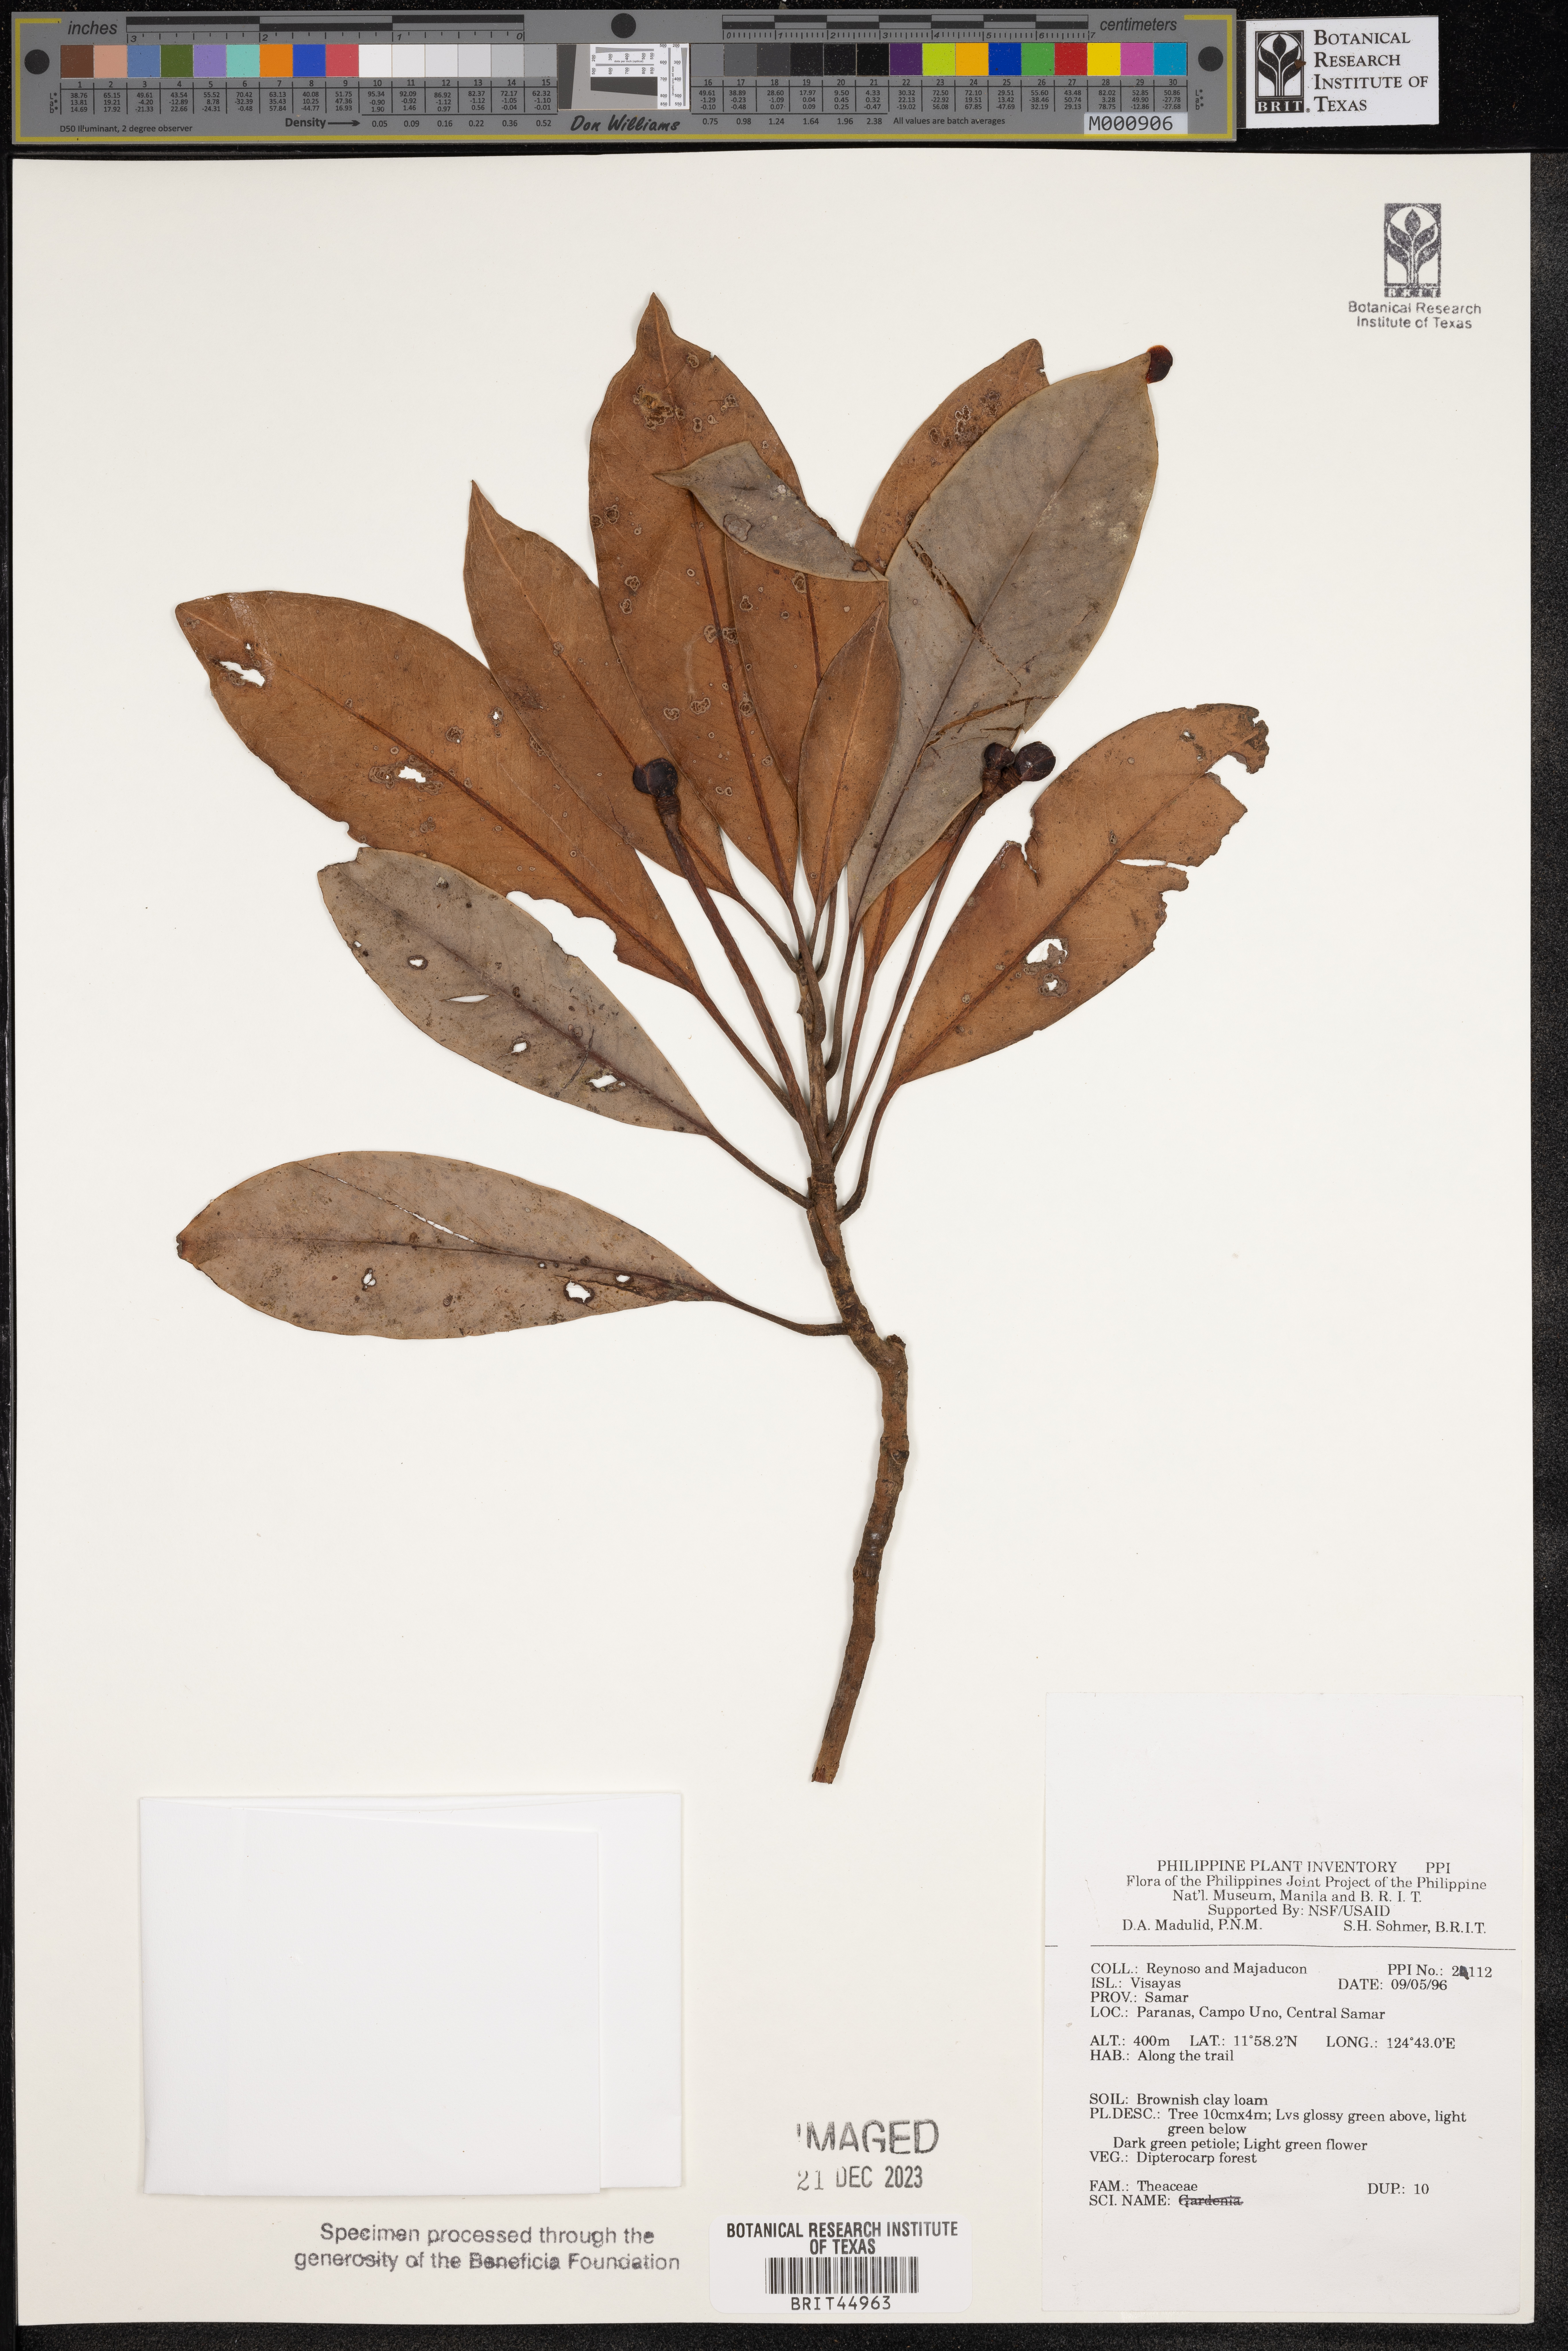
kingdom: Plantae
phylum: Tracheophyta
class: Magnoliopsida
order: Ericales
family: Theaceae
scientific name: Theaceae
